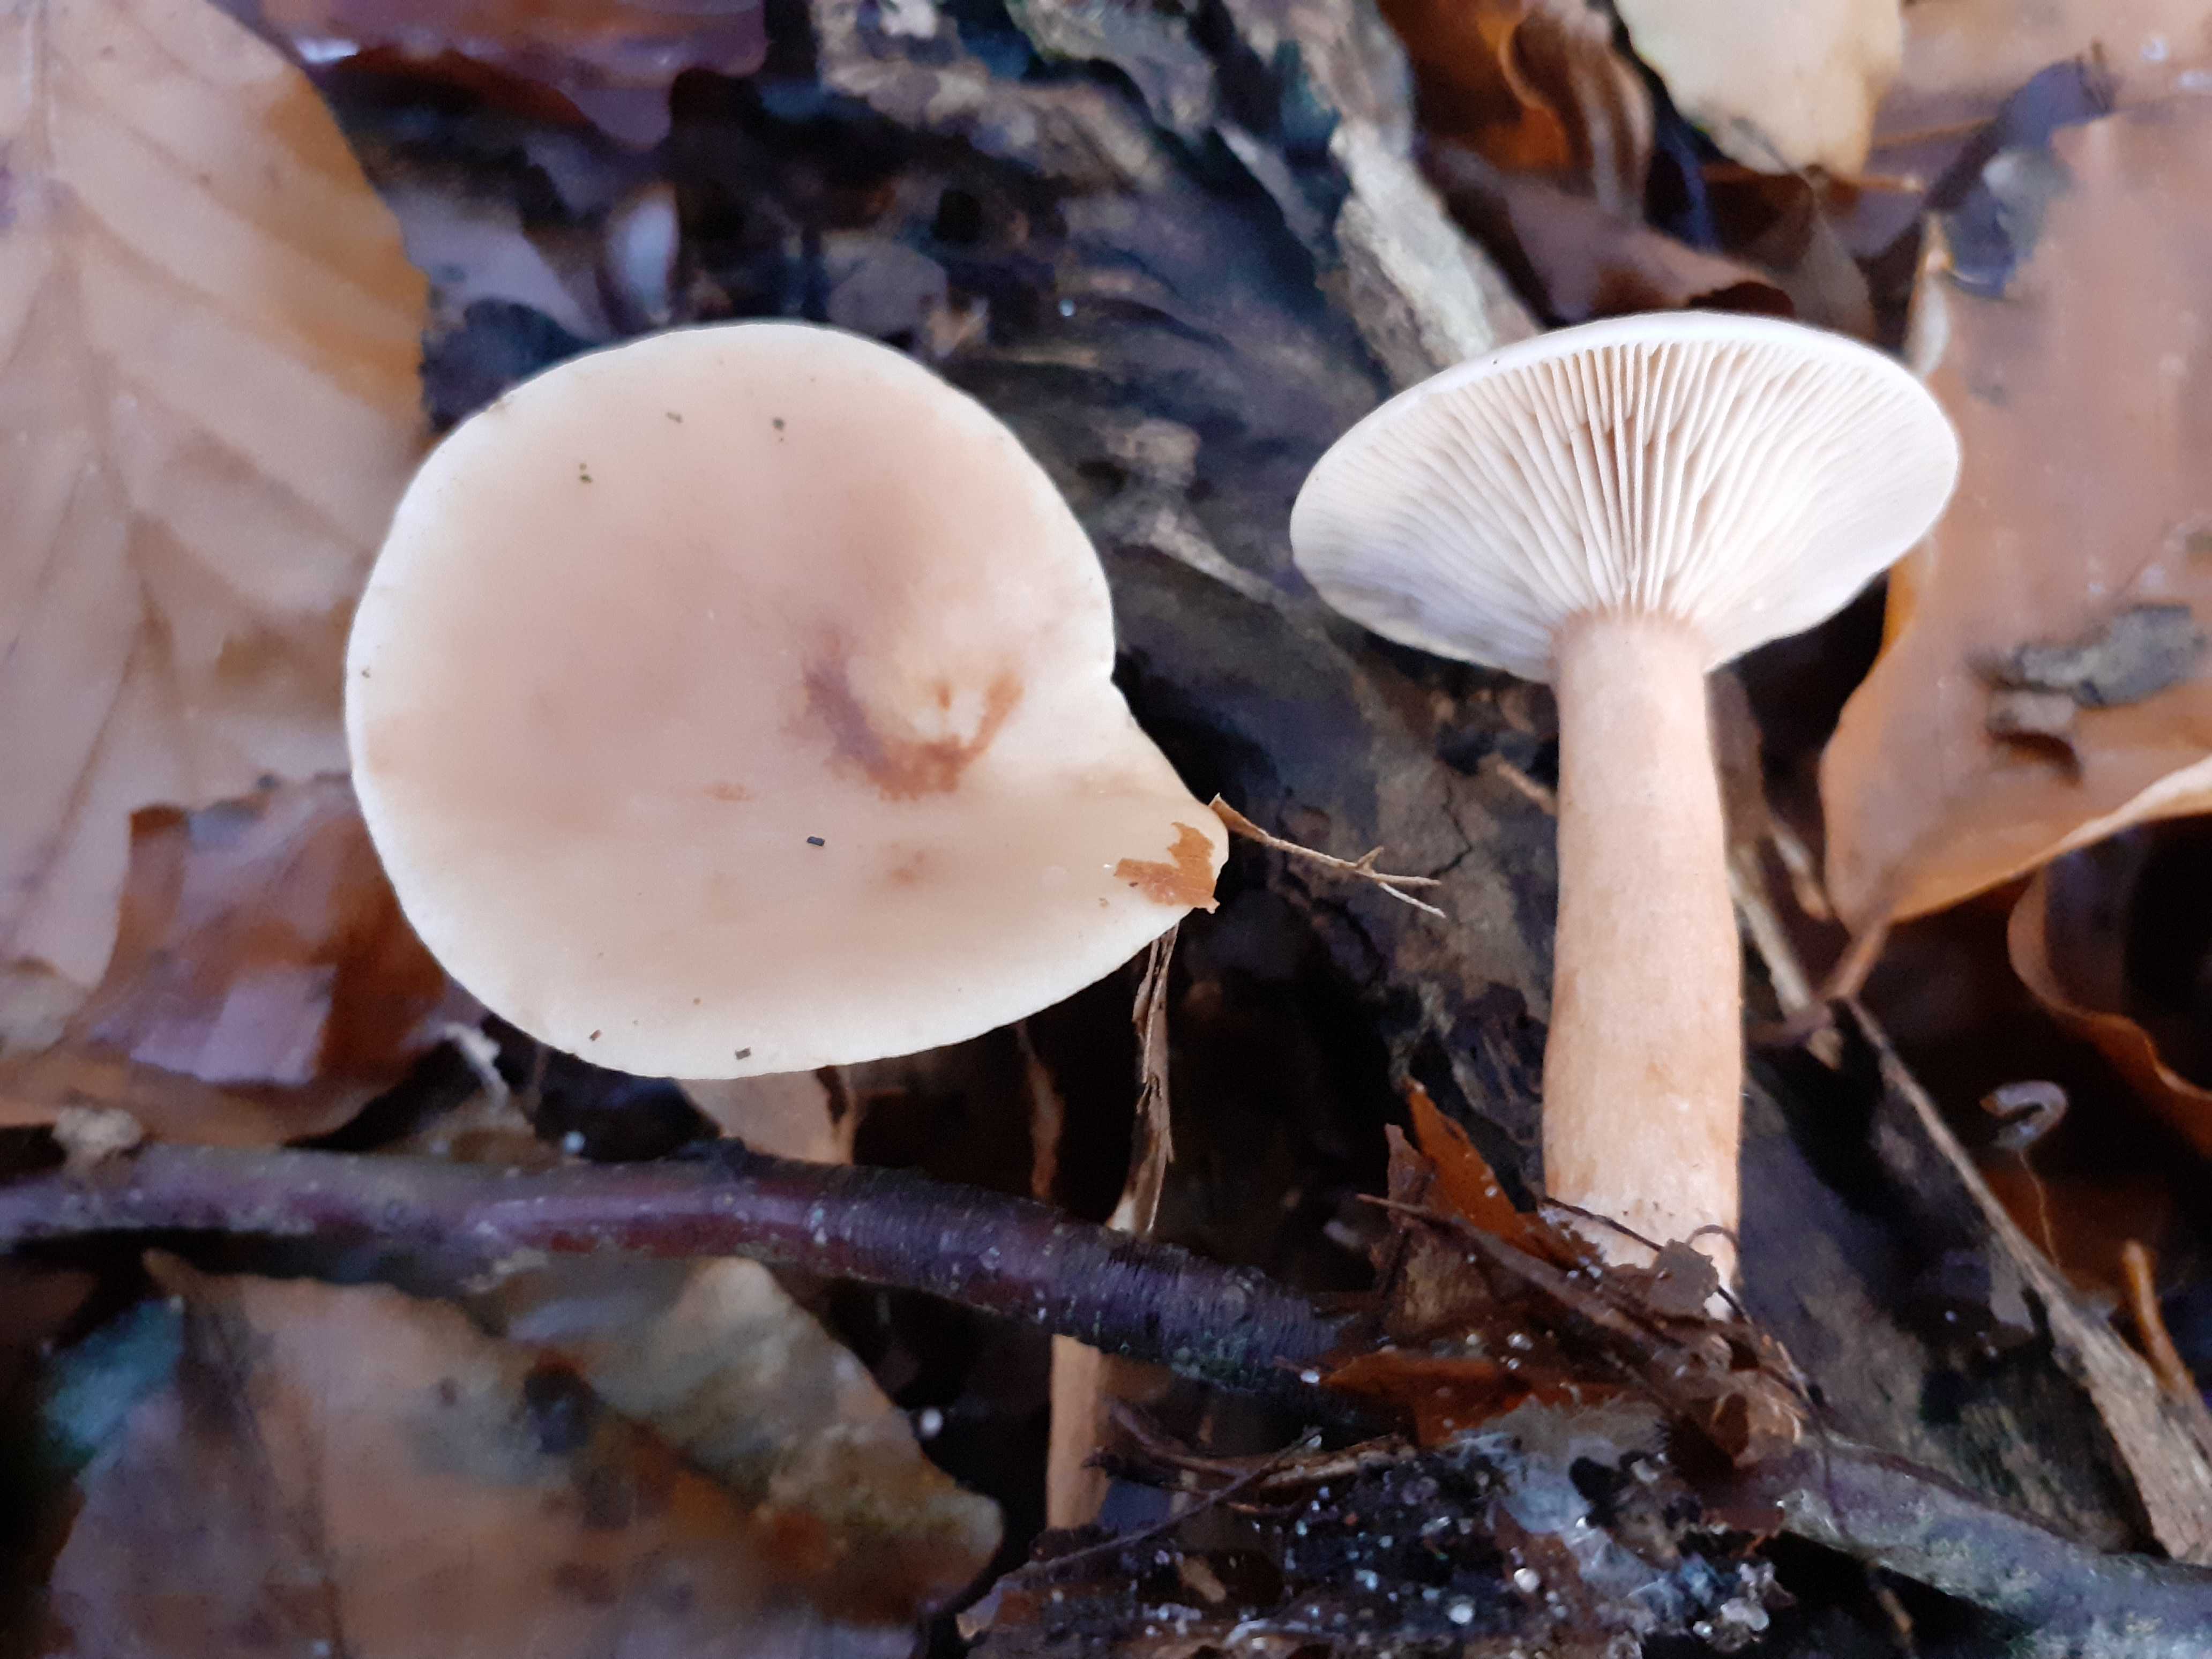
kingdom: Fungi
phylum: Basidiomycota
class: Agaricomycetes
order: Russulales
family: Russulaceae
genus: Lactarius
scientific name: Lactarius subdulcis
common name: sødlig mælkehat
